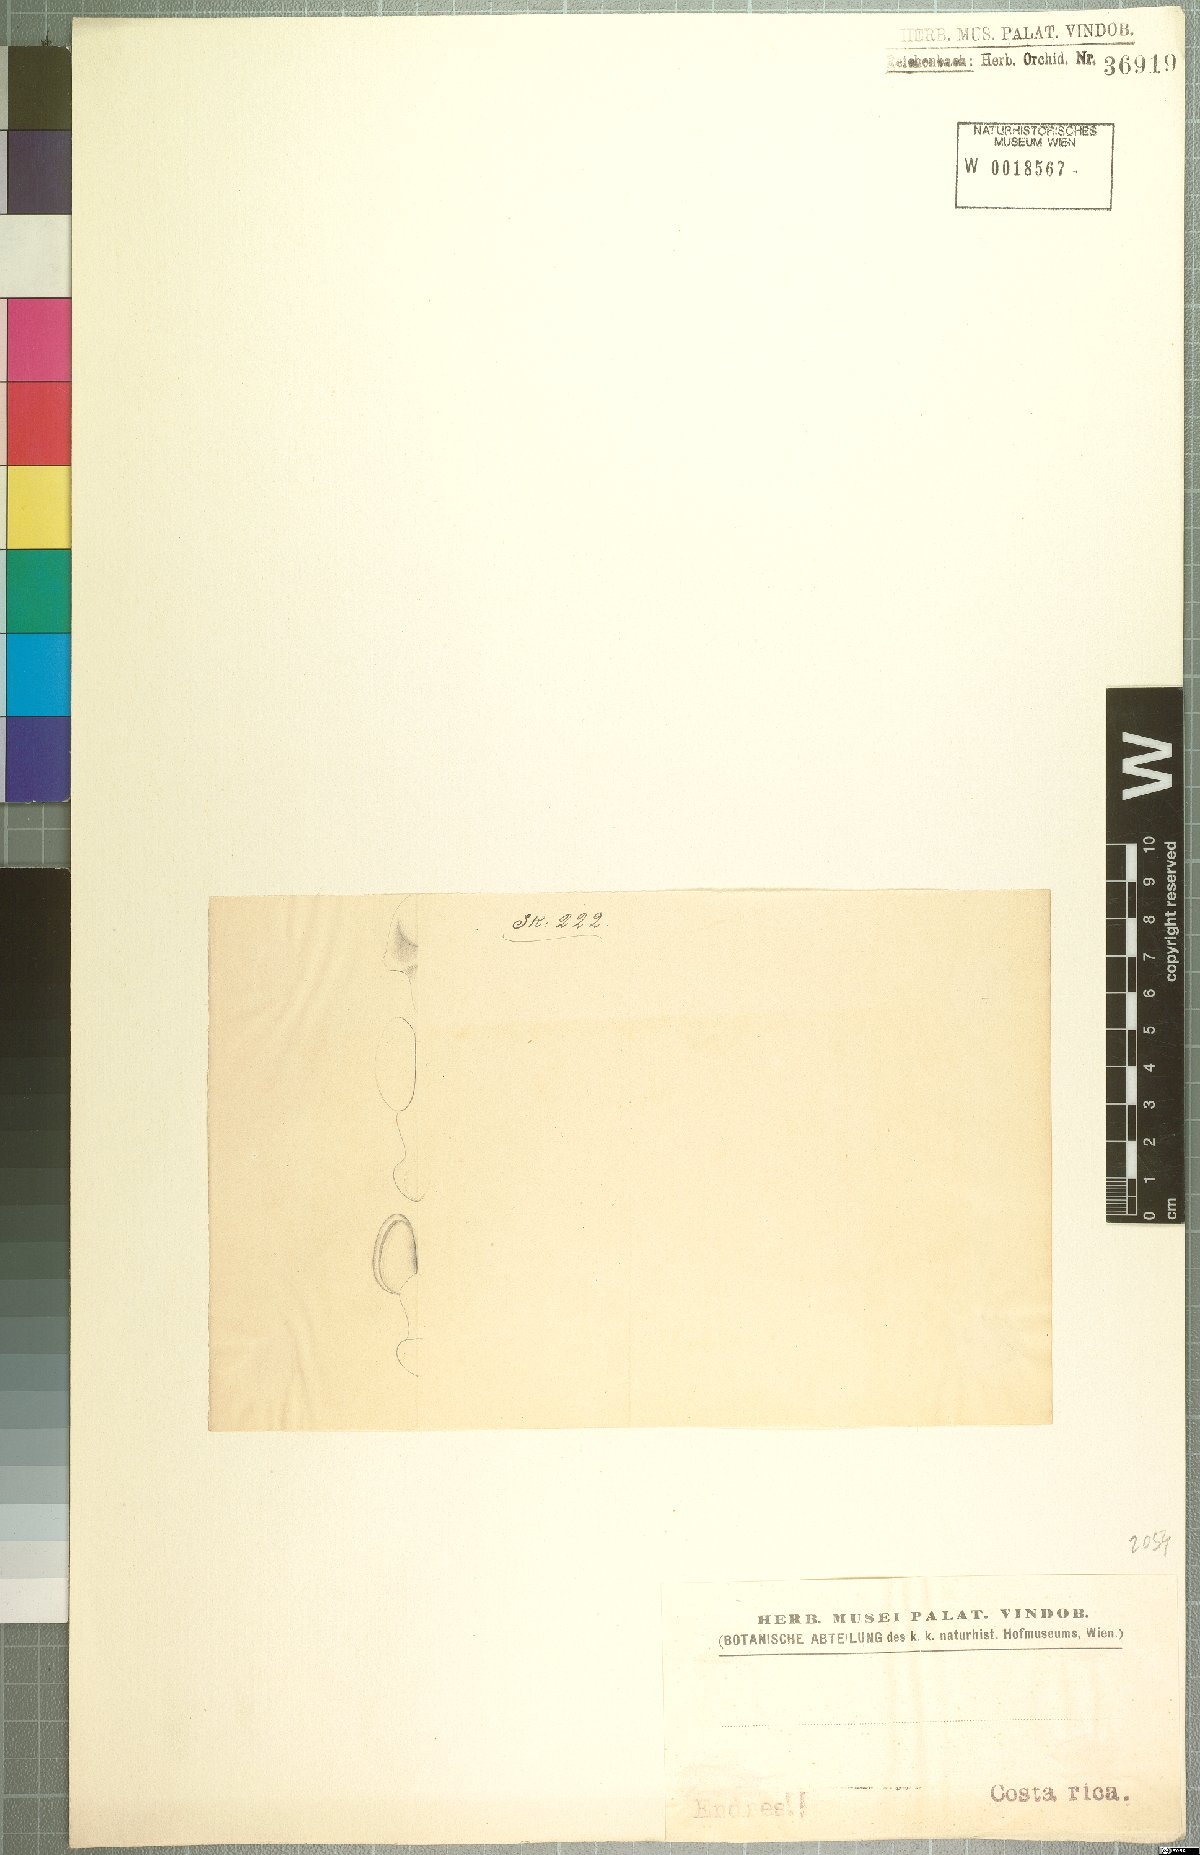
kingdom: Plantae
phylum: Tracheophyta
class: Liliopsida
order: Asparagales
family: Orchidaceae
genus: Maxillaria
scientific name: Maxillaria
